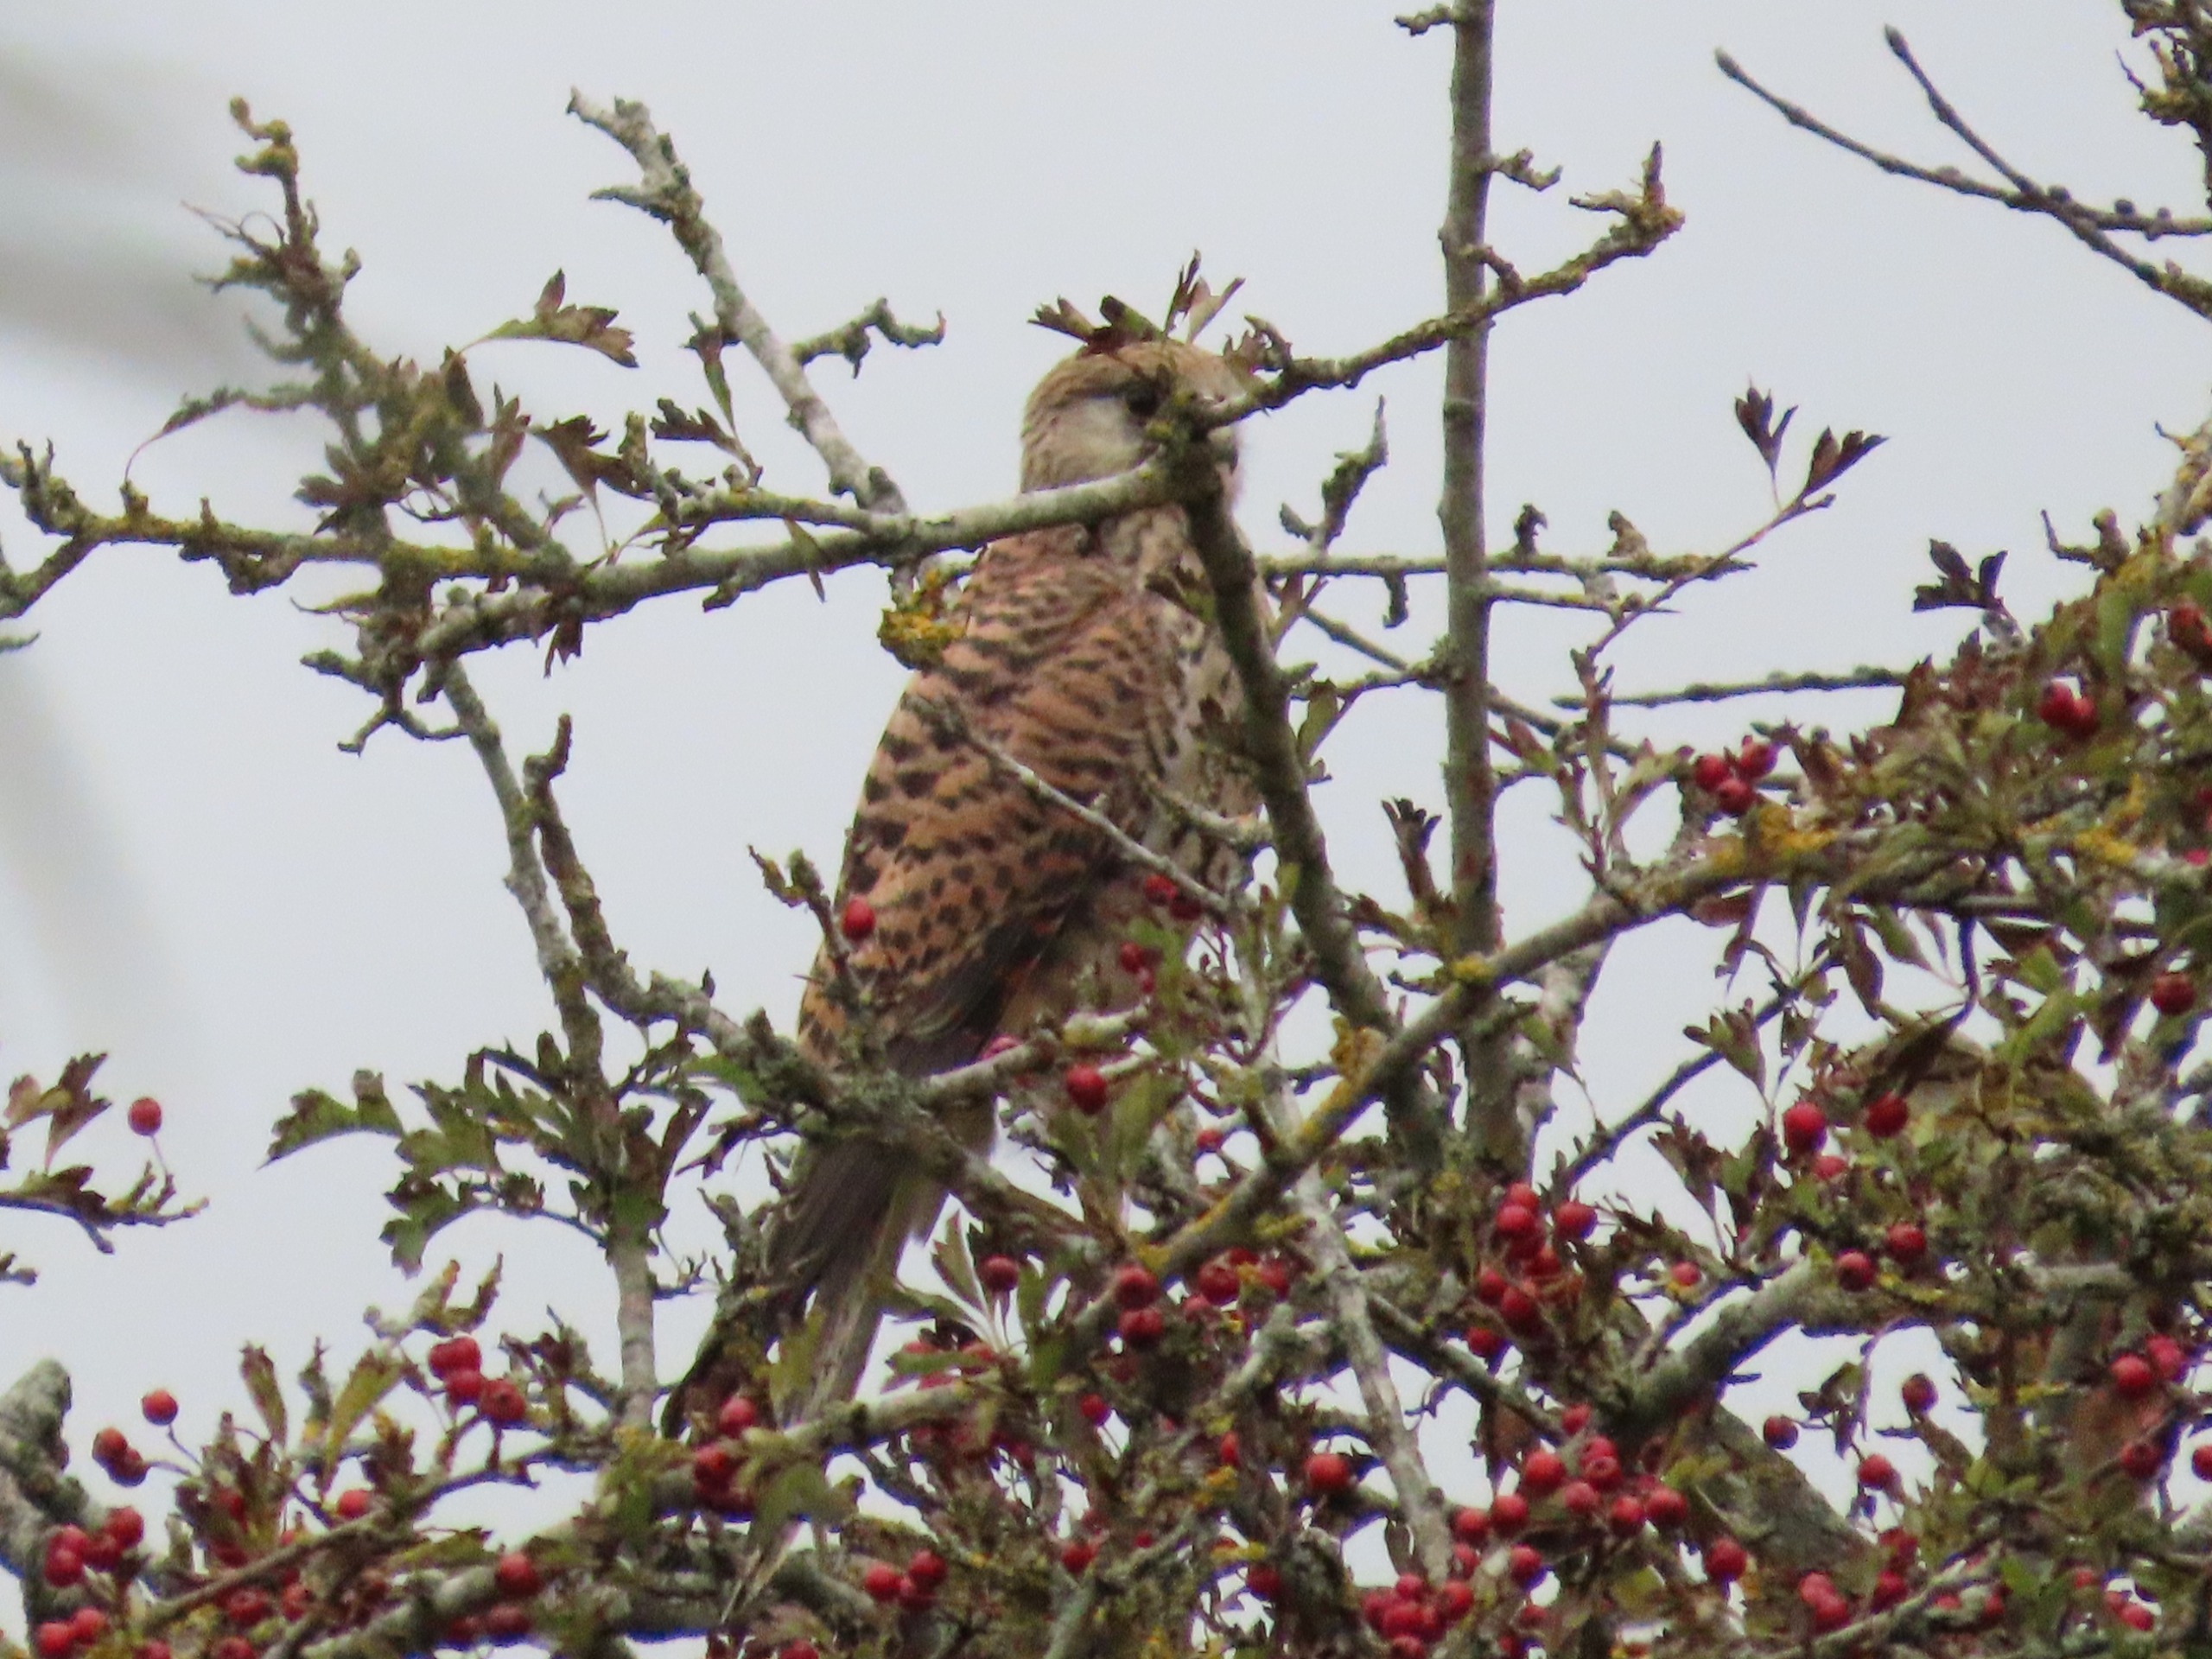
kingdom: Animalia
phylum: Chordata
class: Aves
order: Falconiformes
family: Falconidae
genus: Falco
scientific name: Falco tinnunculus
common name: Tårnfalk
